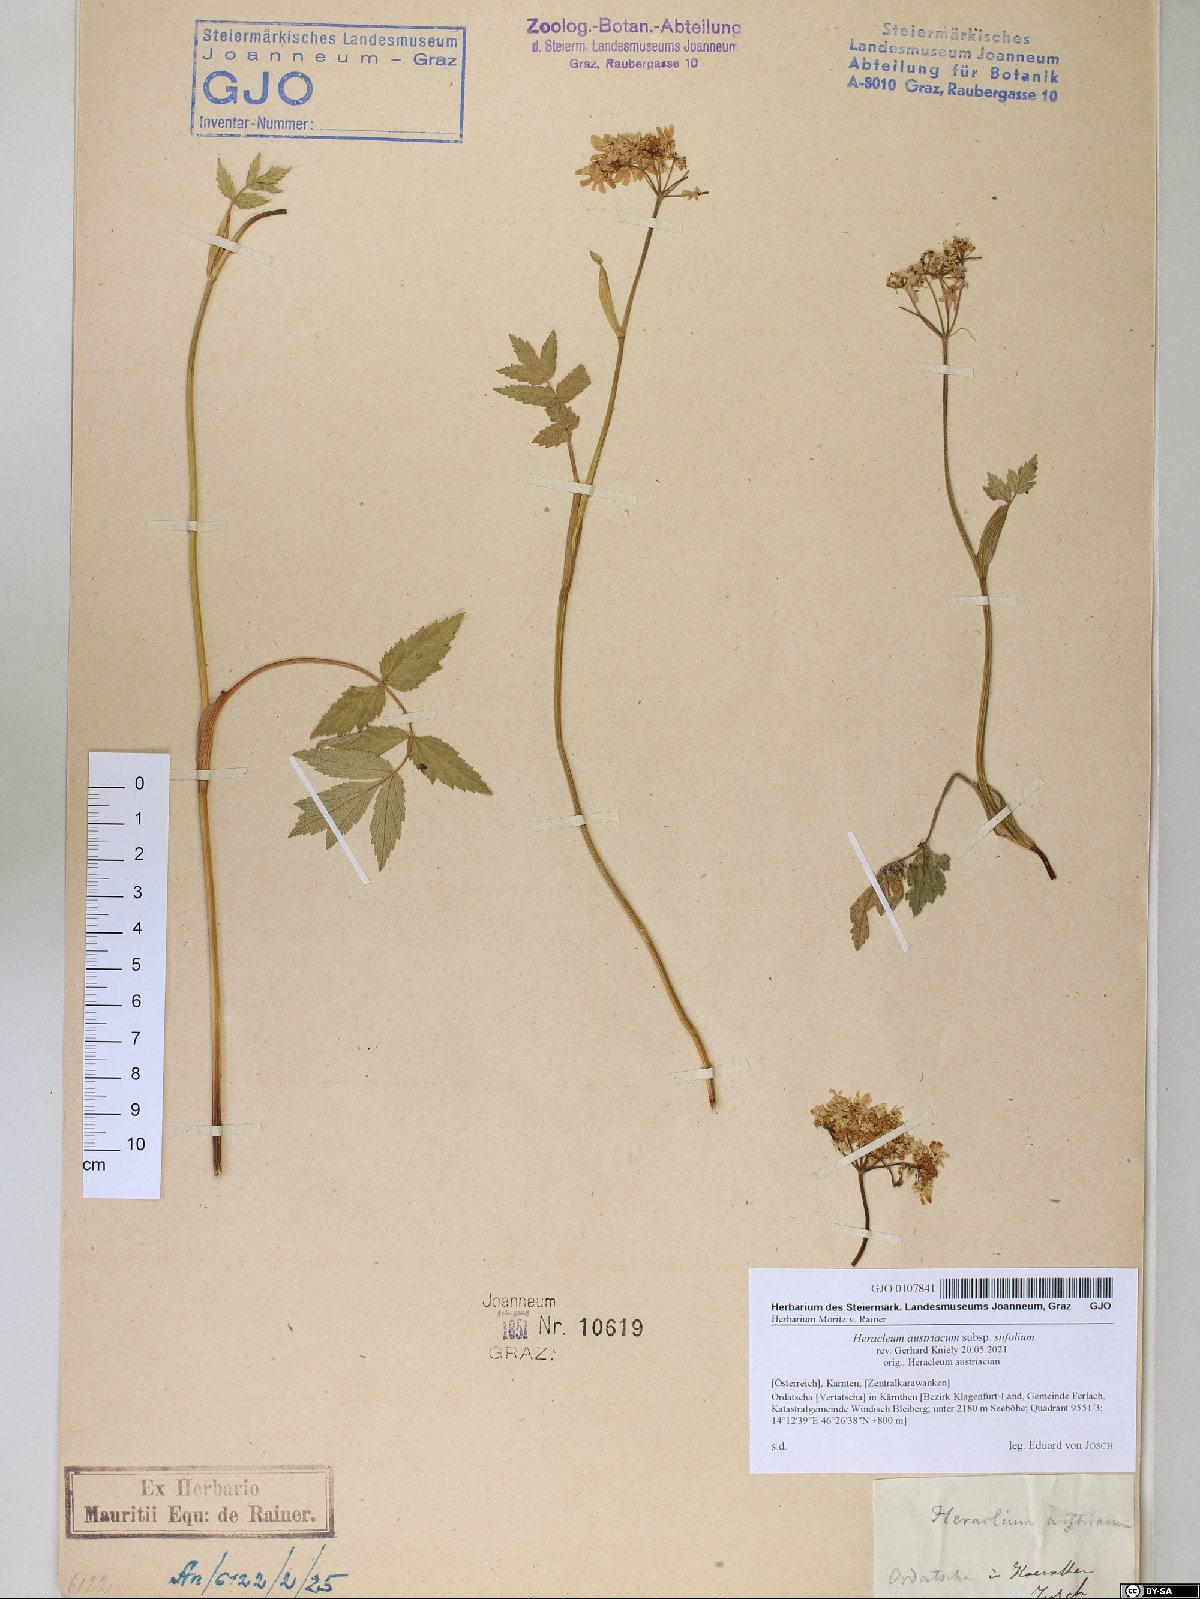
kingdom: Plantae
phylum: Tracheophyta
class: Magnoliopsida
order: Apiales
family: Apiaceae
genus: Heracleum
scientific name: Heracleum austriacum
